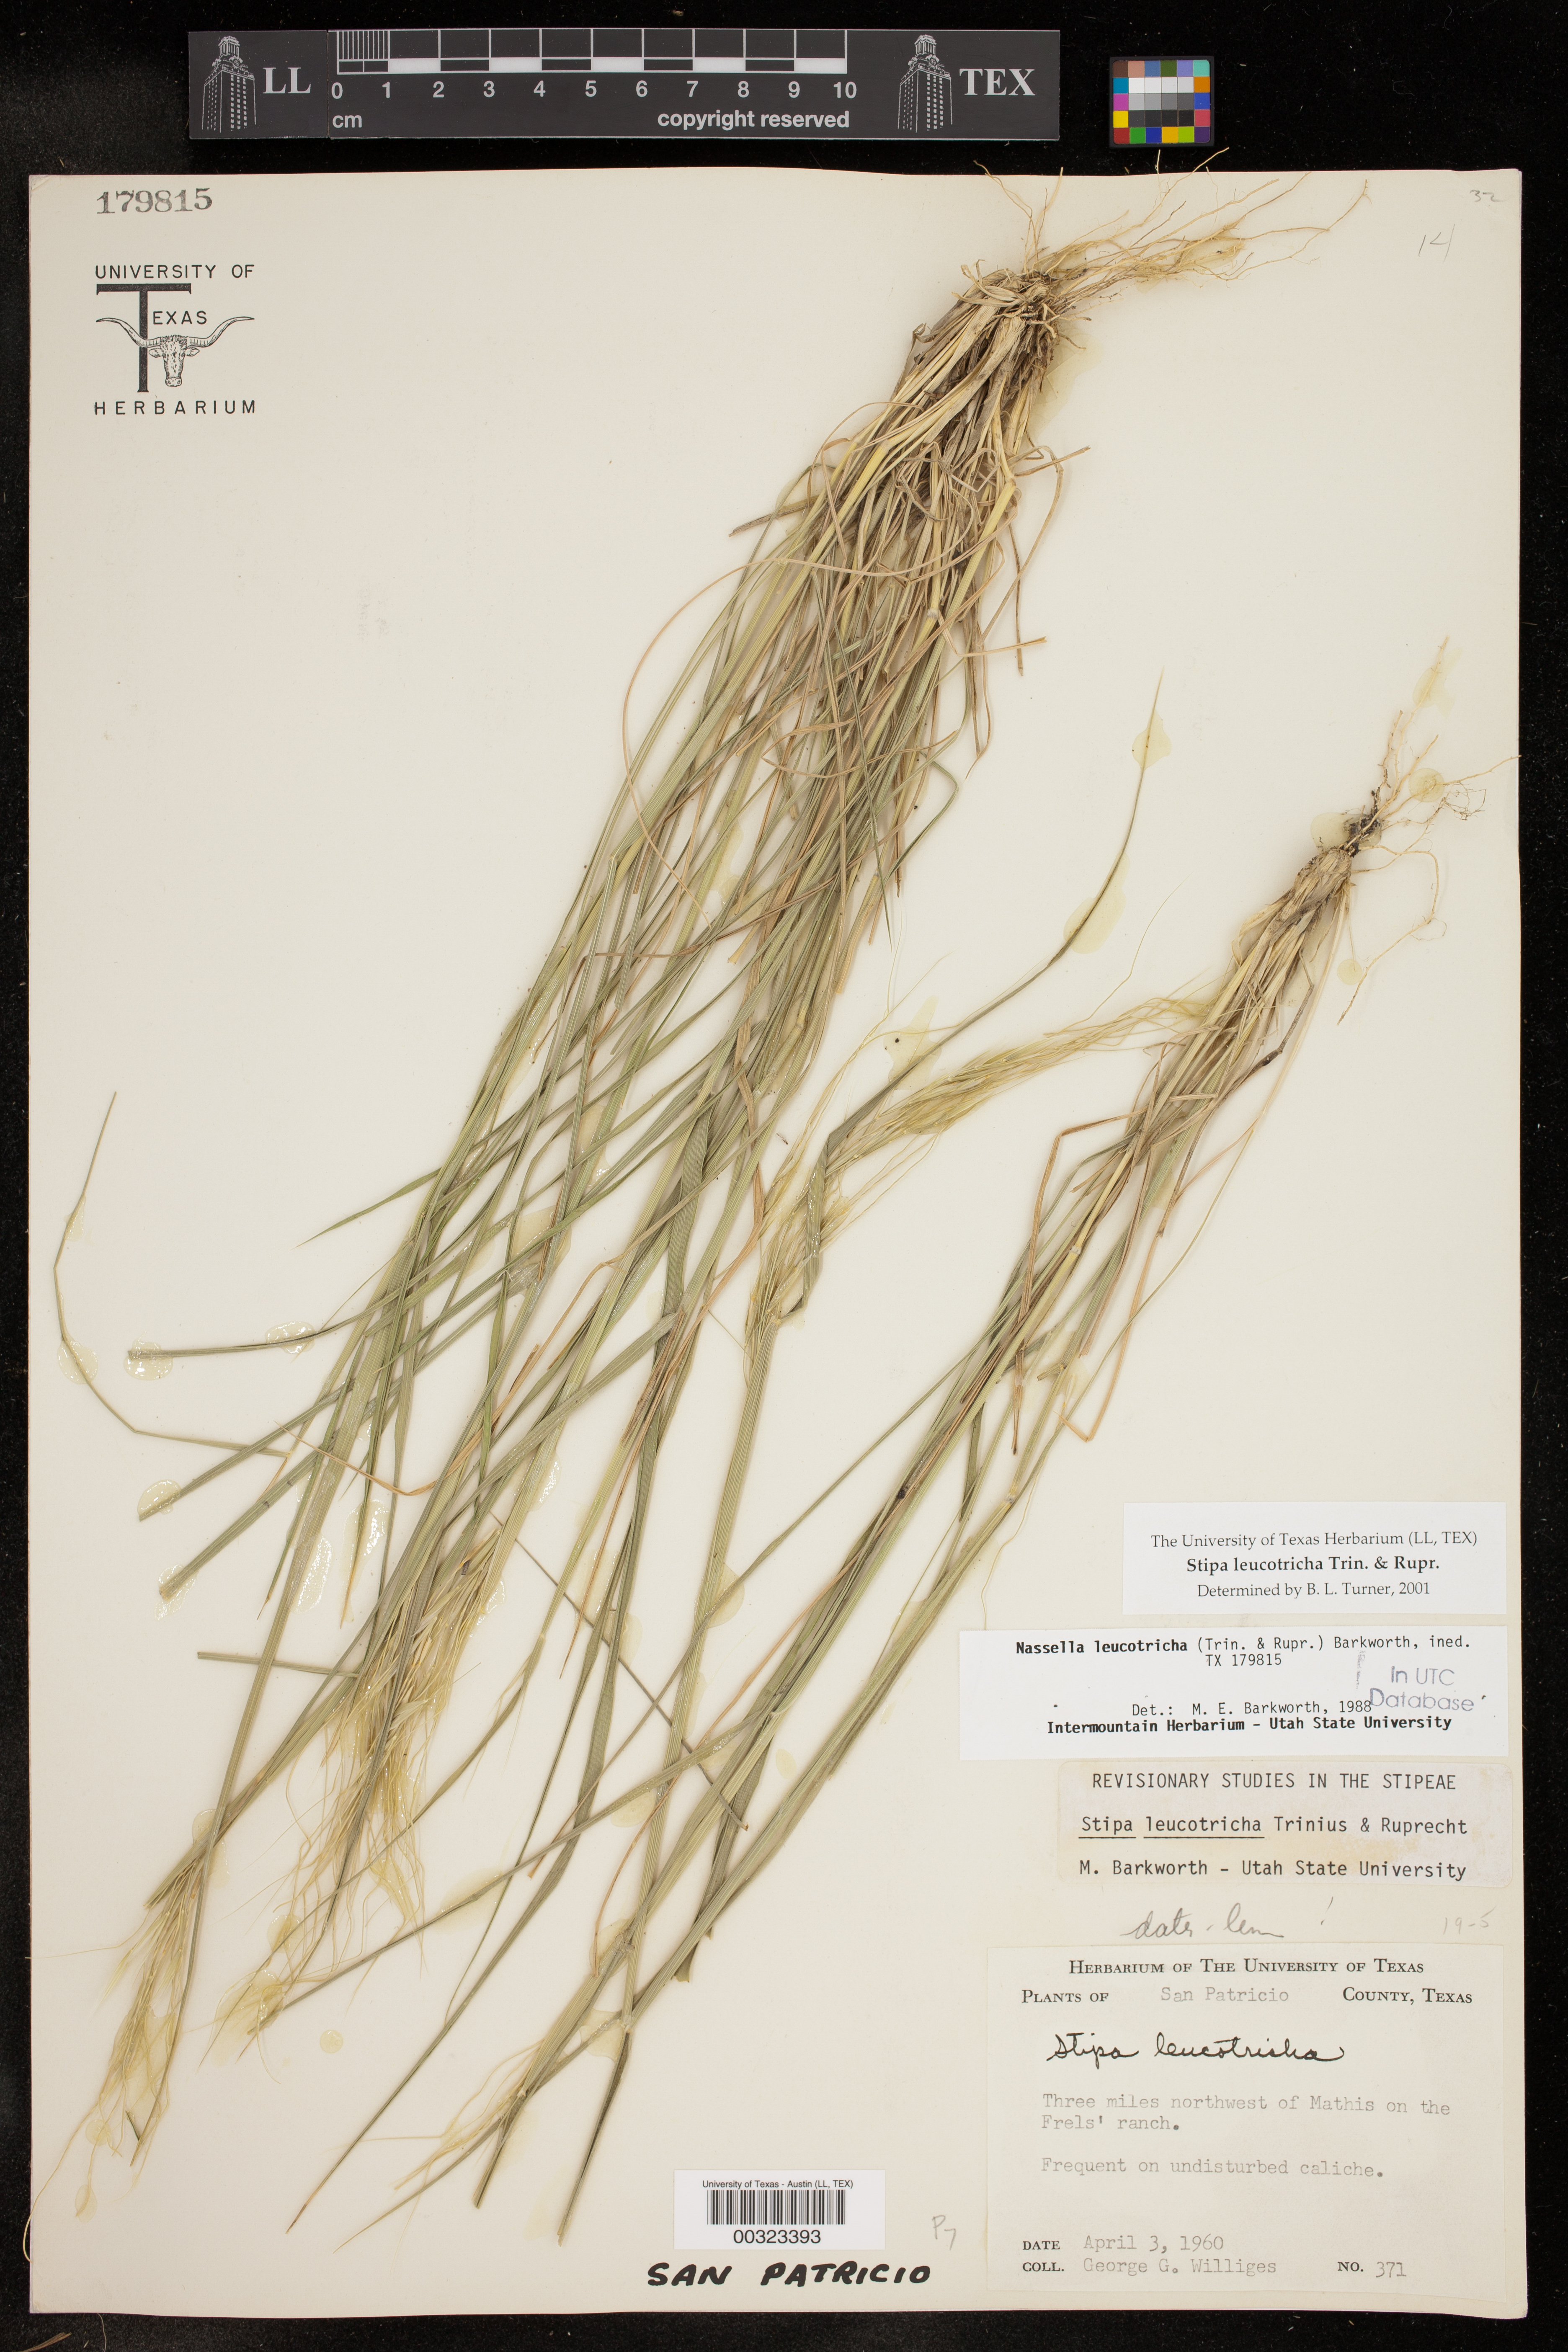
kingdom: Plantae
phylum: Tracheophyta
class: Liliopsida
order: Poales
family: Poaceae
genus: Nassella
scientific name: Nassella leucotricha
